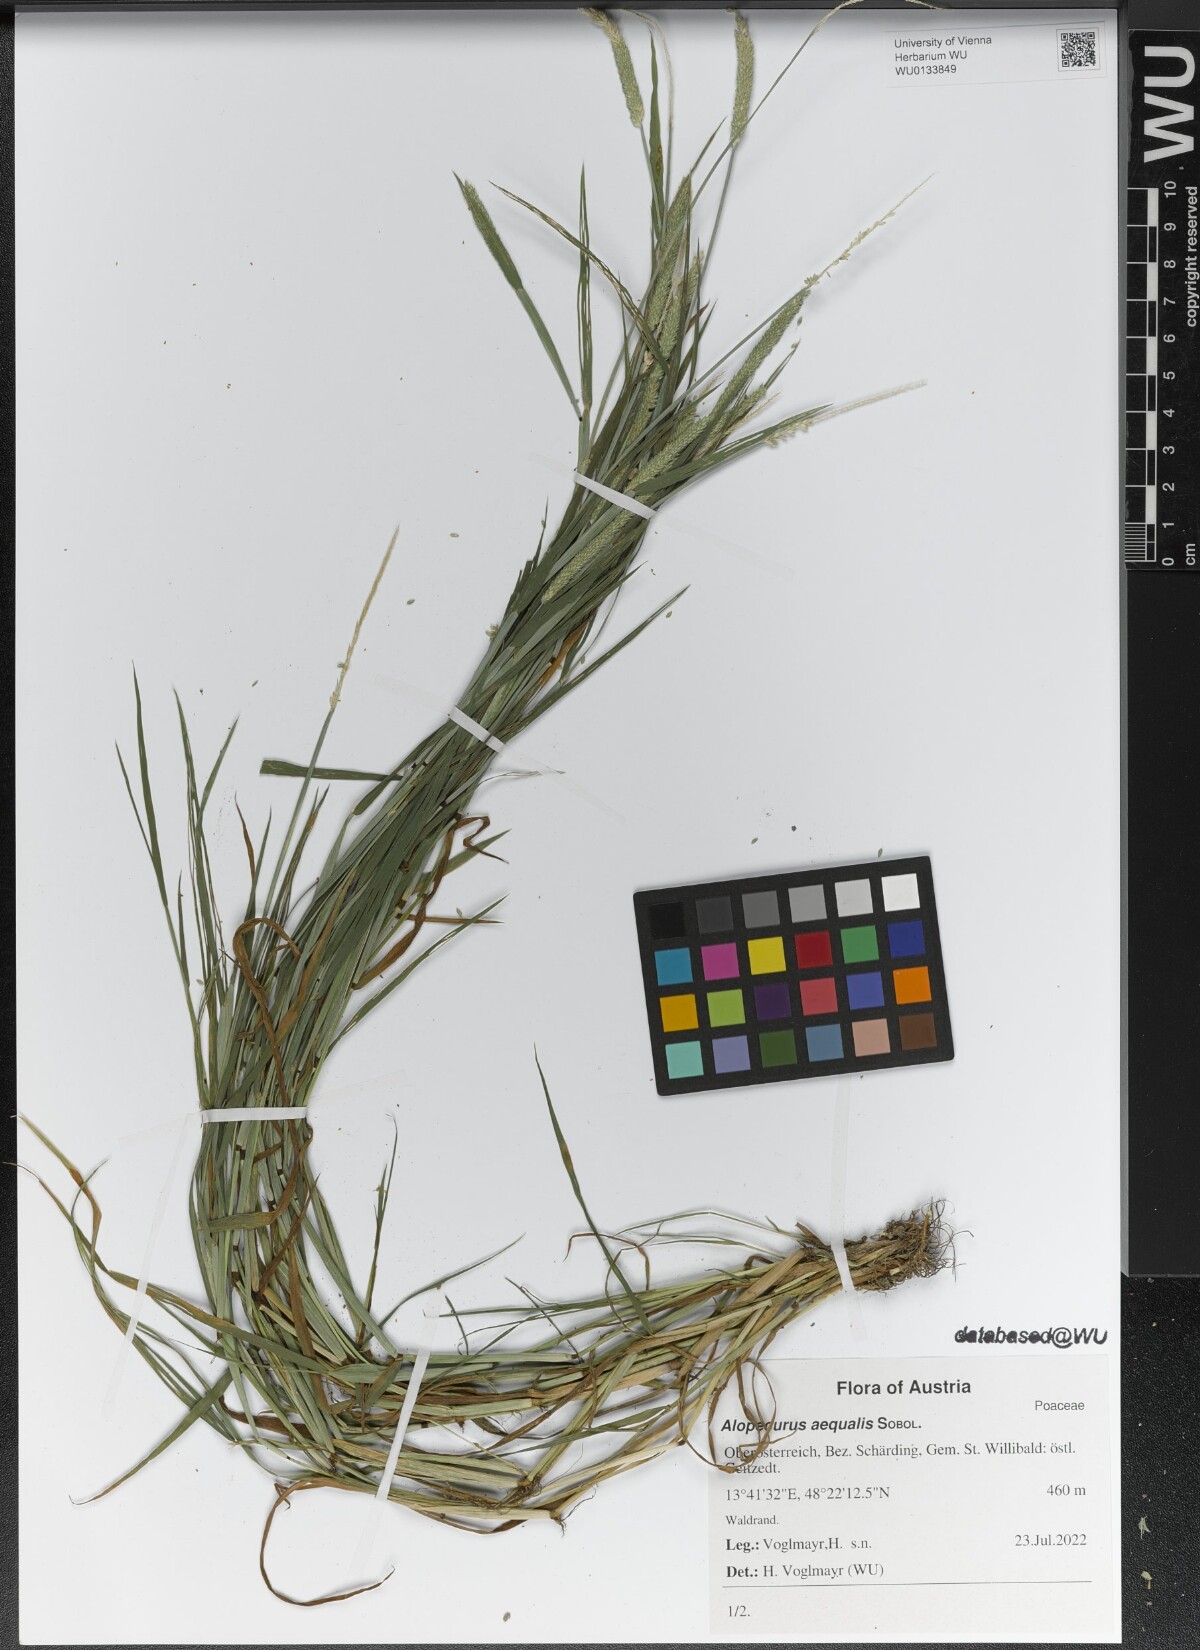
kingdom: Plantae
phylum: Tracheophyta
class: Liliopsida
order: Poales
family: Poaceae
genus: Alopecurus
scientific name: Alopecurus aequalis
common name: Orange foxtail
